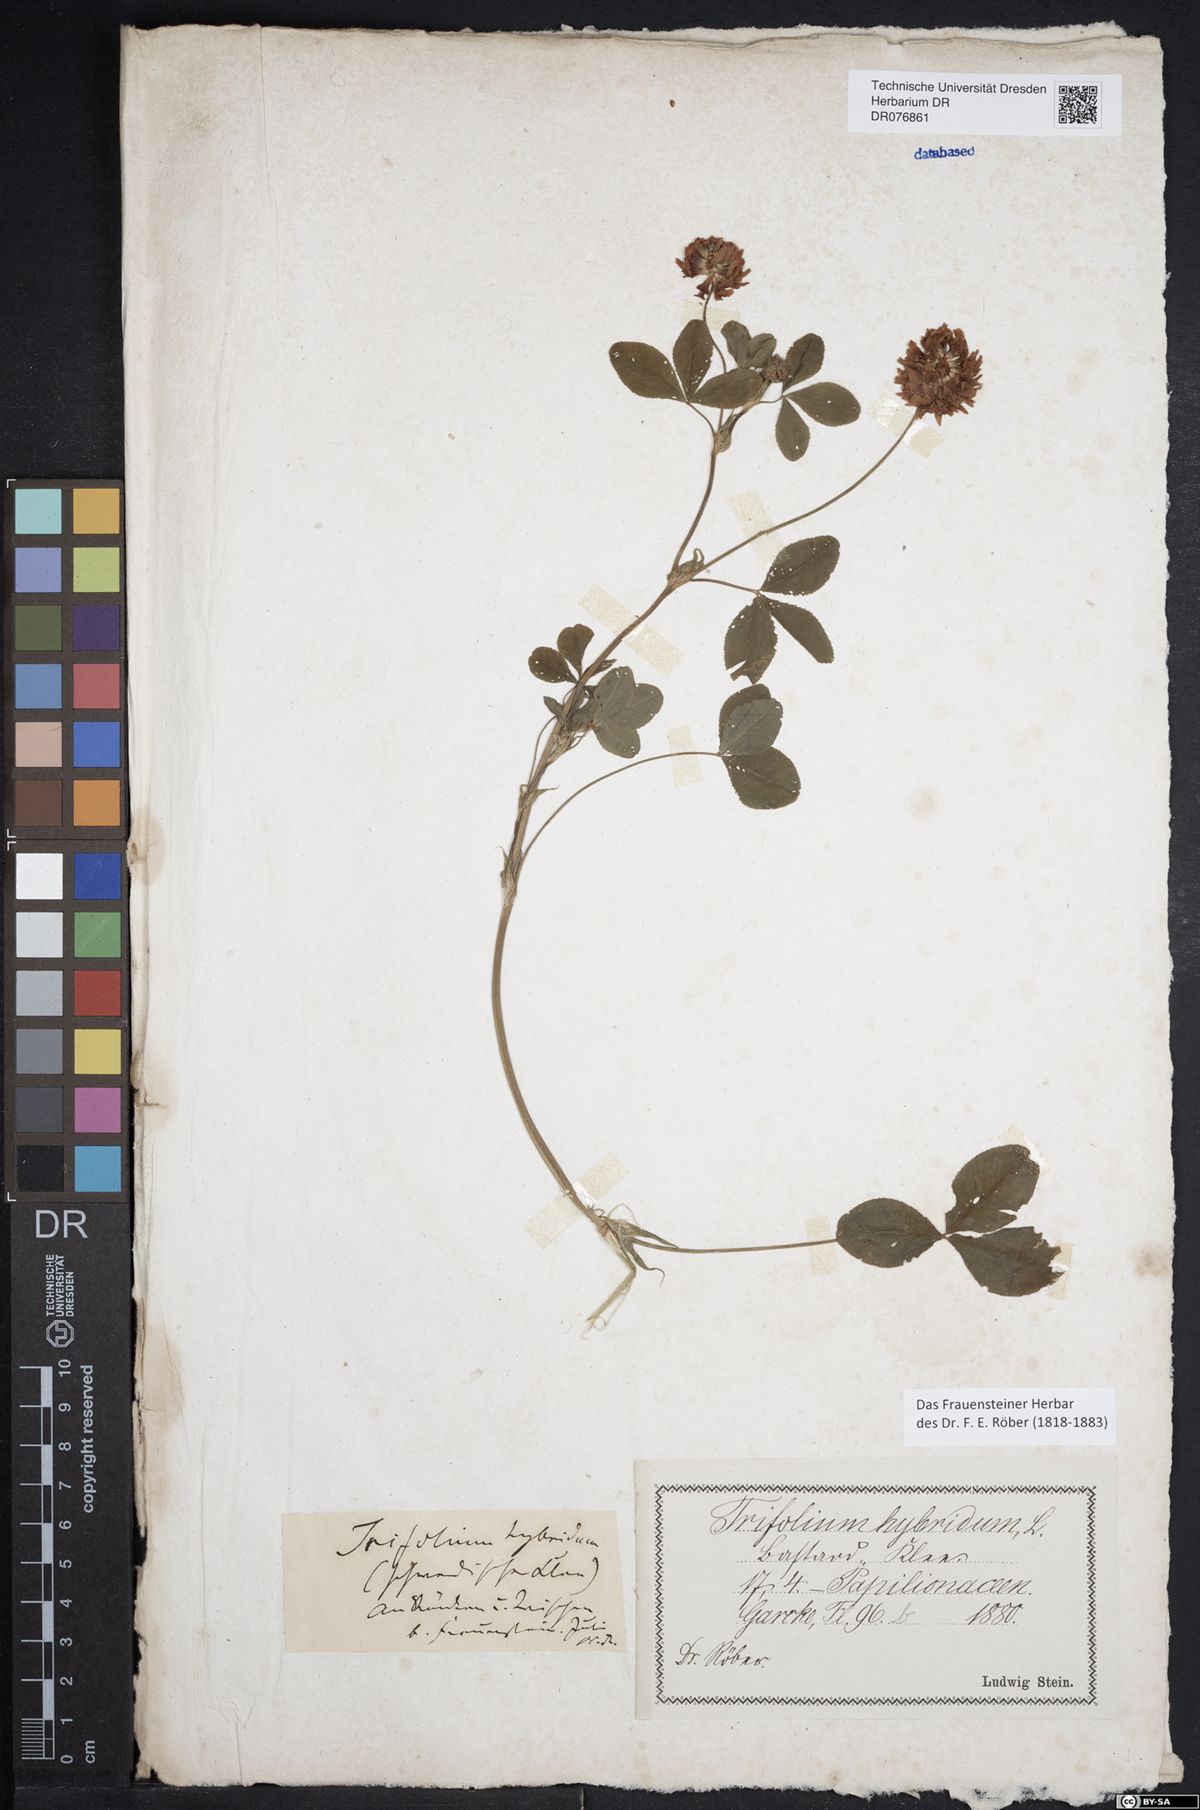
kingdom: Plantae
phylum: Tracheophyta
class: Magnoliopsida
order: Fabales
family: Fabaceae
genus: Trifolium
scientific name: Trifolium hybridum
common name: Alsike clover
